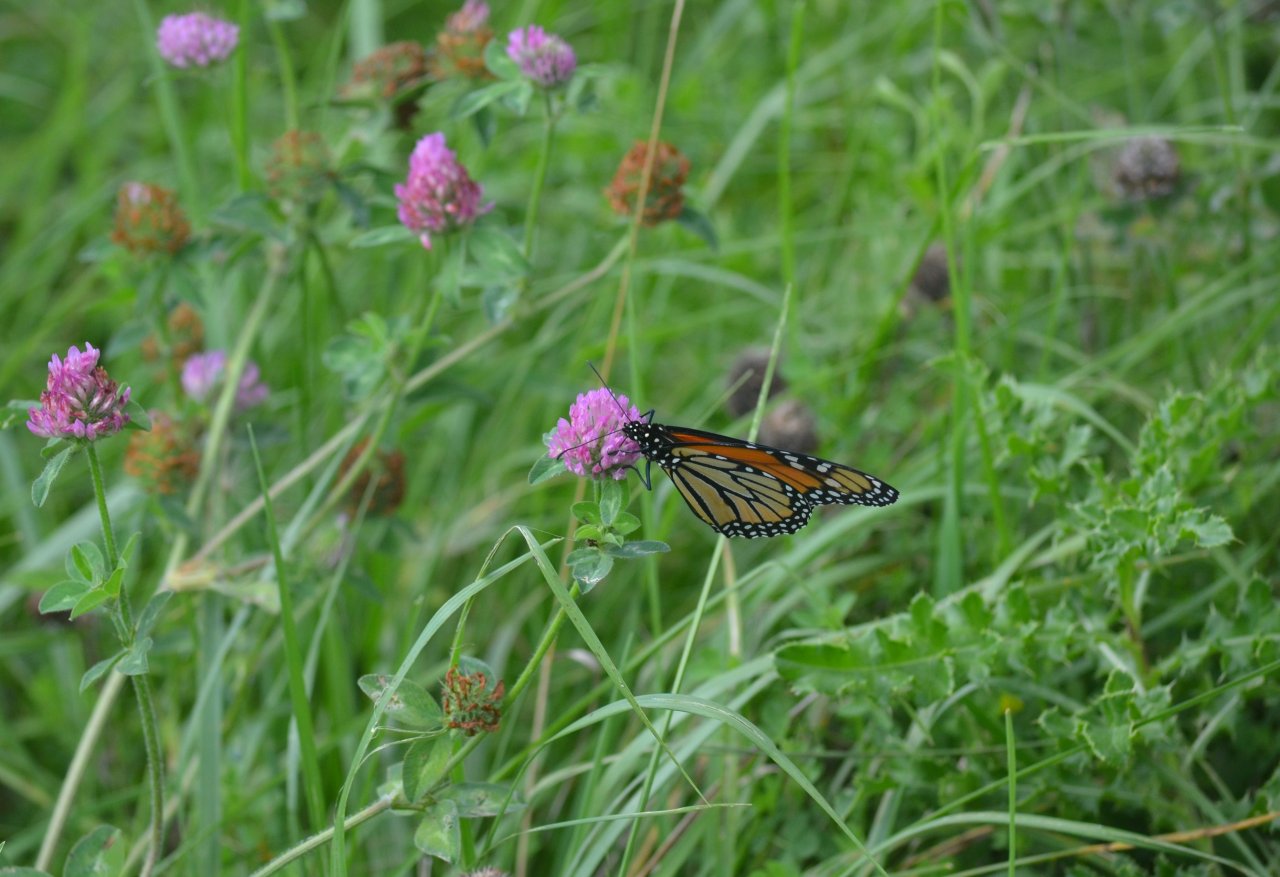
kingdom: Animalia
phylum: Arthropoda
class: Insecta
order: Lepidoptera
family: Nymphalidae
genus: Danaus
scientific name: Danaus plexippus
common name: Monarch
